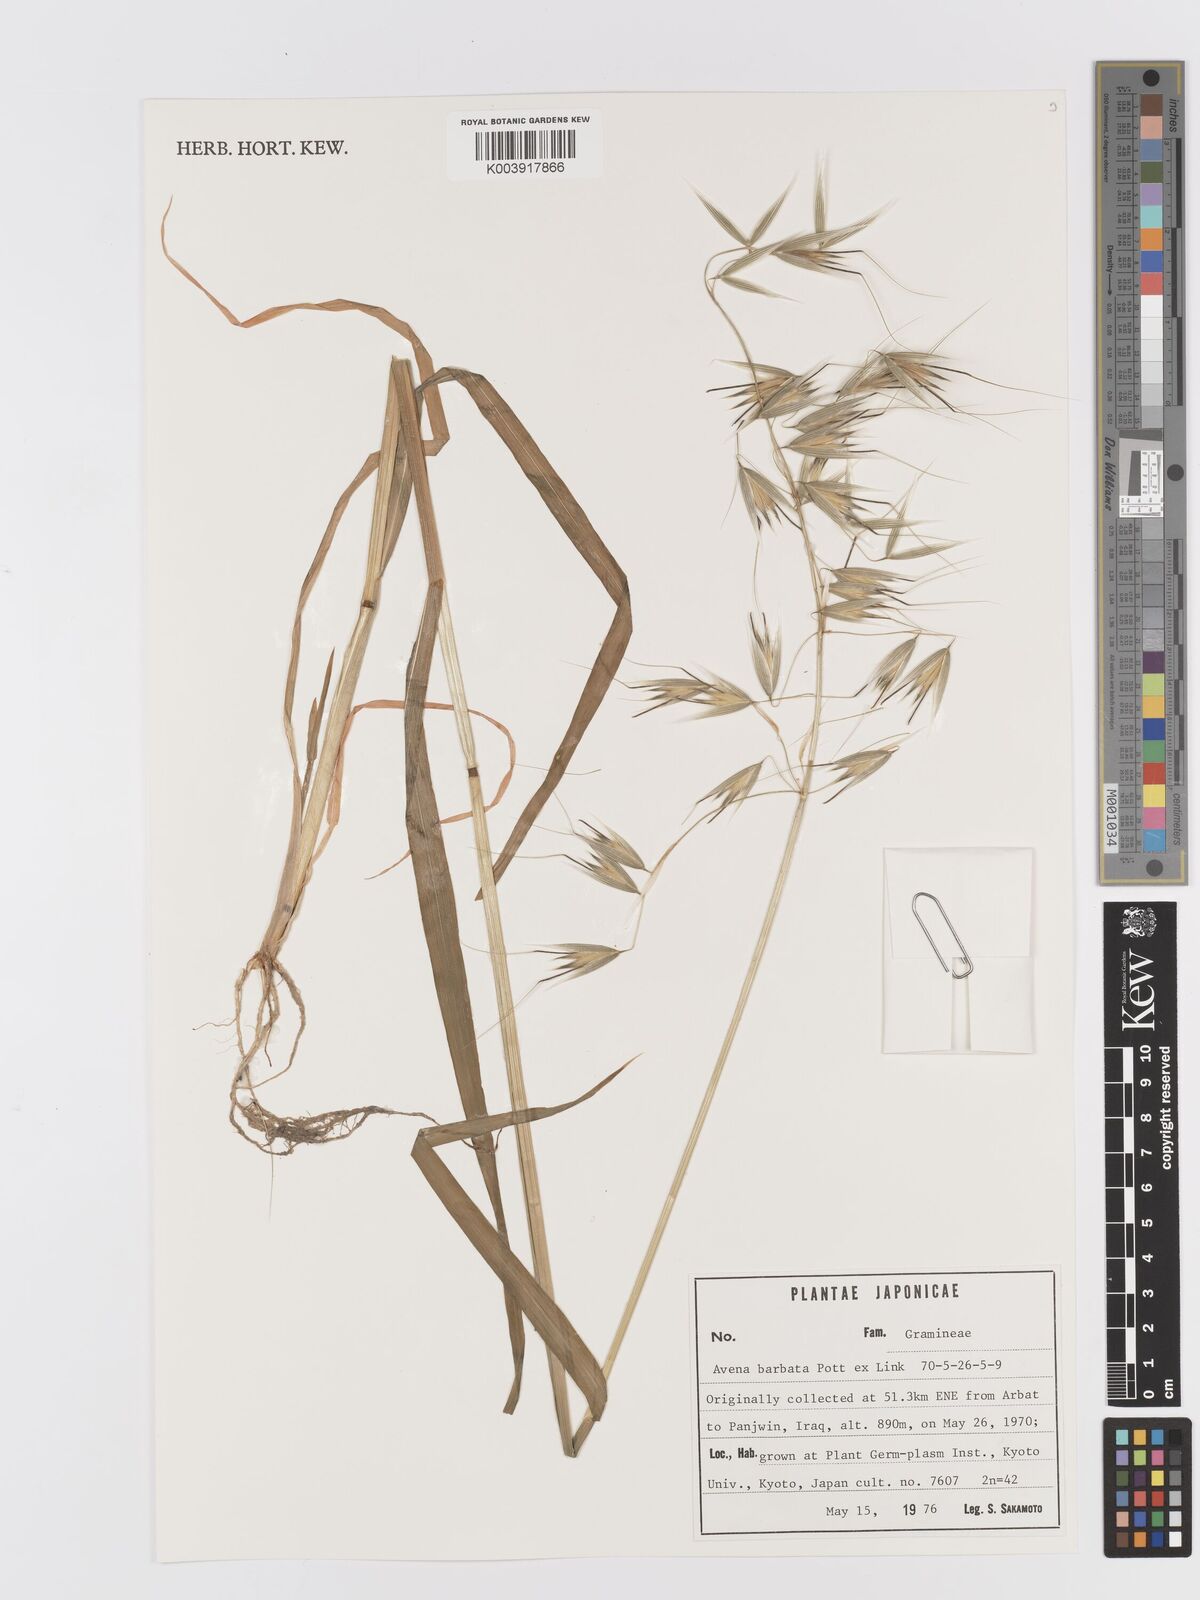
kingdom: Plantae
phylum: Tracheophyta
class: Liliopsida
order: Poales
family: Poaceae
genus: Avena
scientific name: Avena
